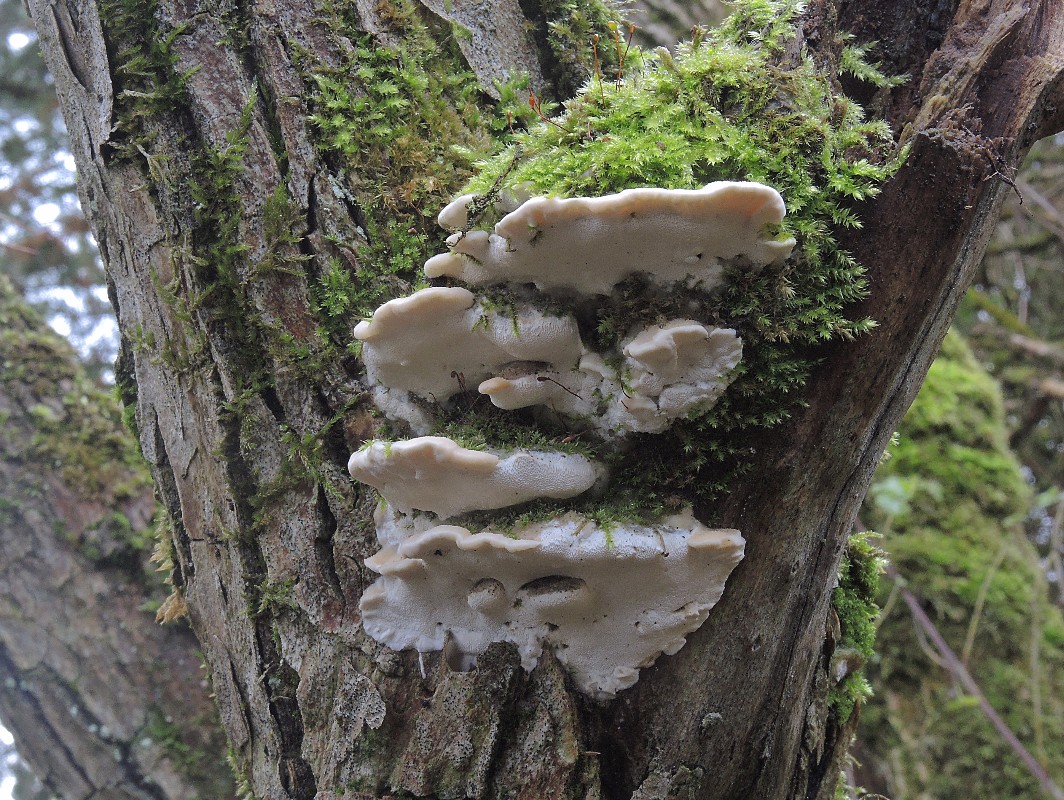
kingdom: Fungi
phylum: Basidiomycota
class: Agaricomycetes
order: Hymenochaetales
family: Oxyporaceae
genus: Oxyporus
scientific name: Oxyporus populinus
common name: sammenvokset trylleporesvamp
